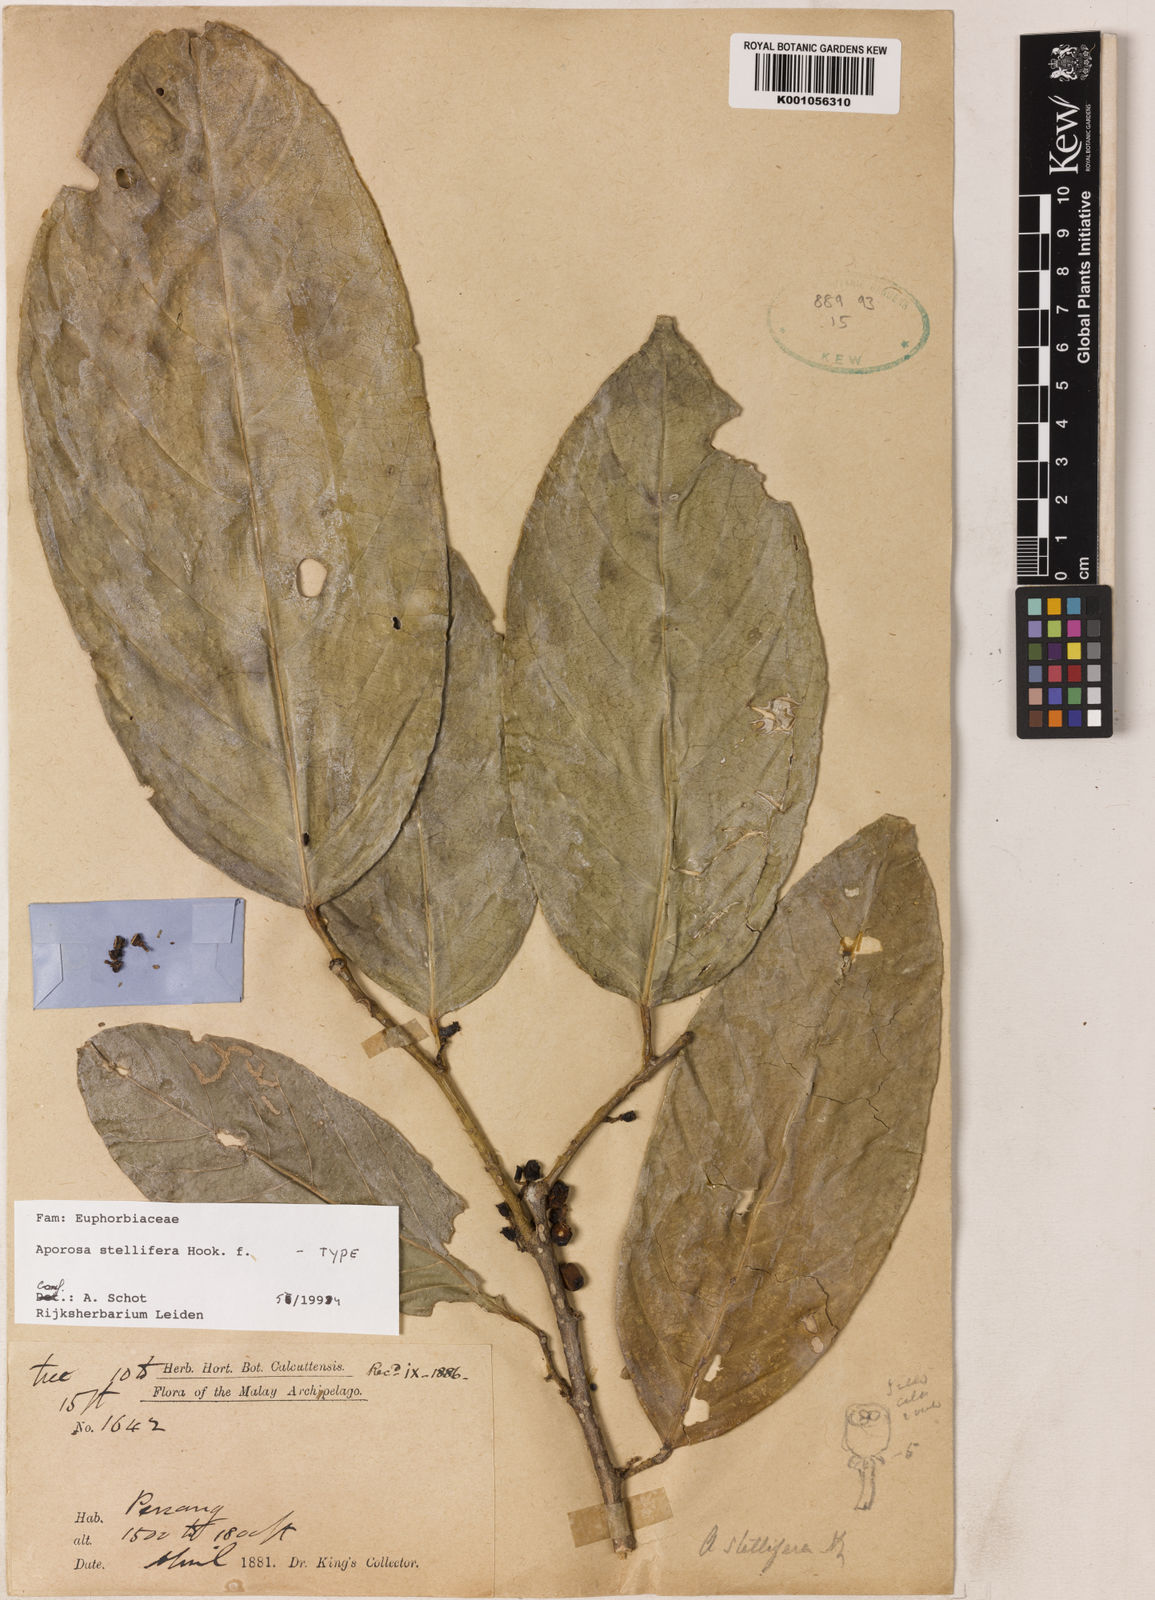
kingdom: Plantae
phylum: Tracheophyta
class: Magnoliopsida
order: Malpighiales
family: Phyllanthaceae
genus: Aporosa
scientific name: Aporosa stellifera
